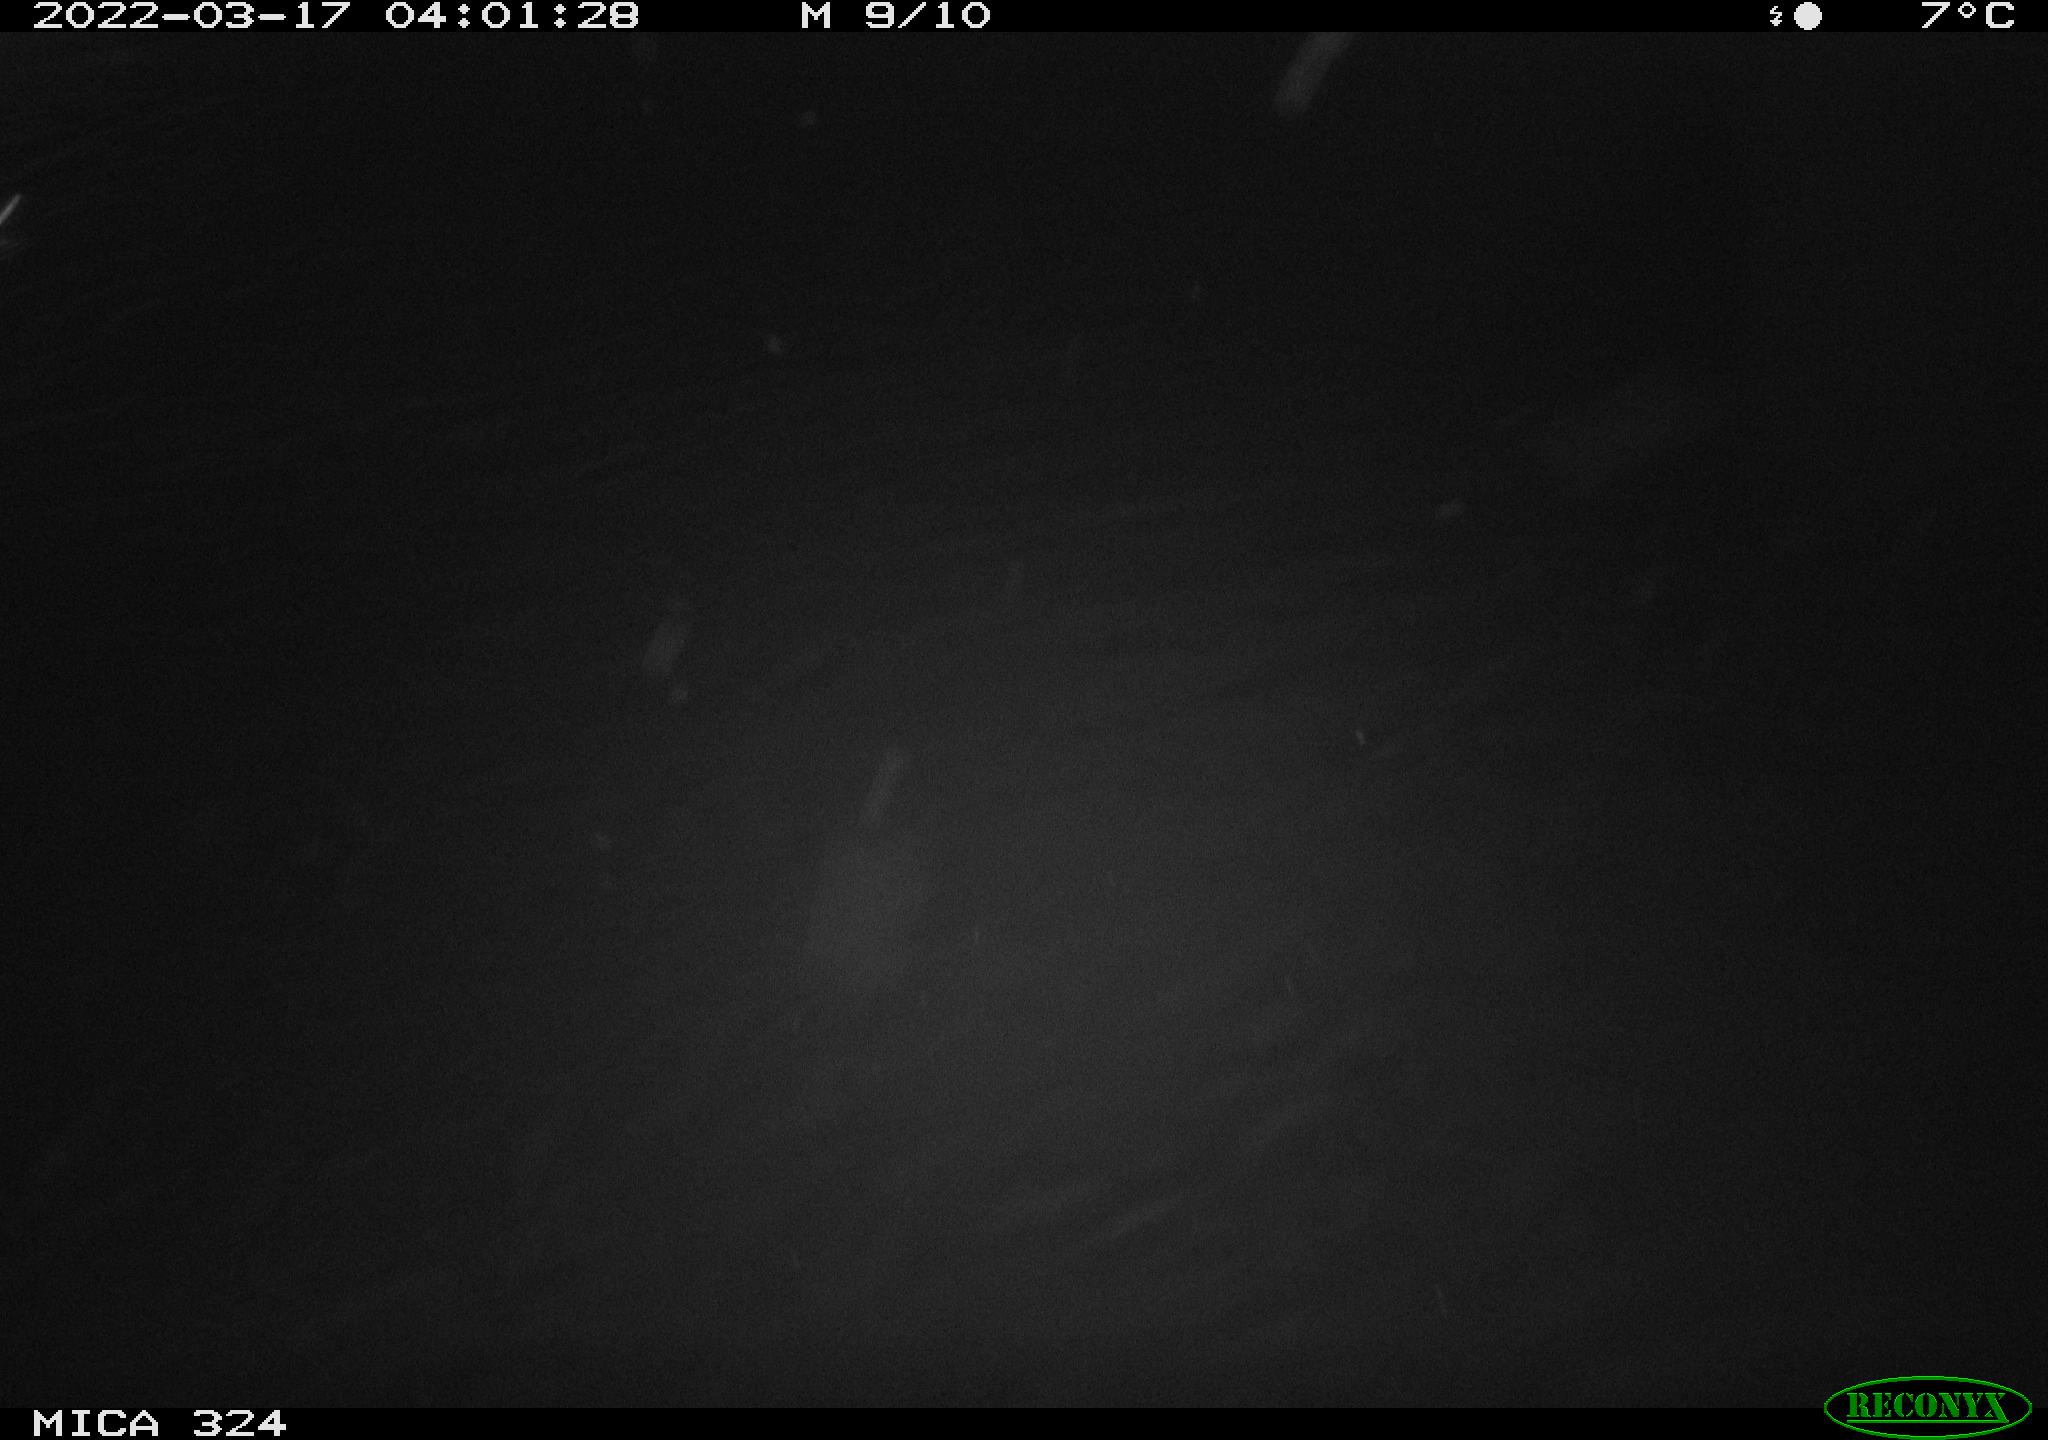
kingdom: Animalia
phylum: Chordata
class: Mammalia
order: Rodentia
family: Cricetidae
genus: Ondatra
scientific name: Ondatra zibethicus
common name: Muskrat
